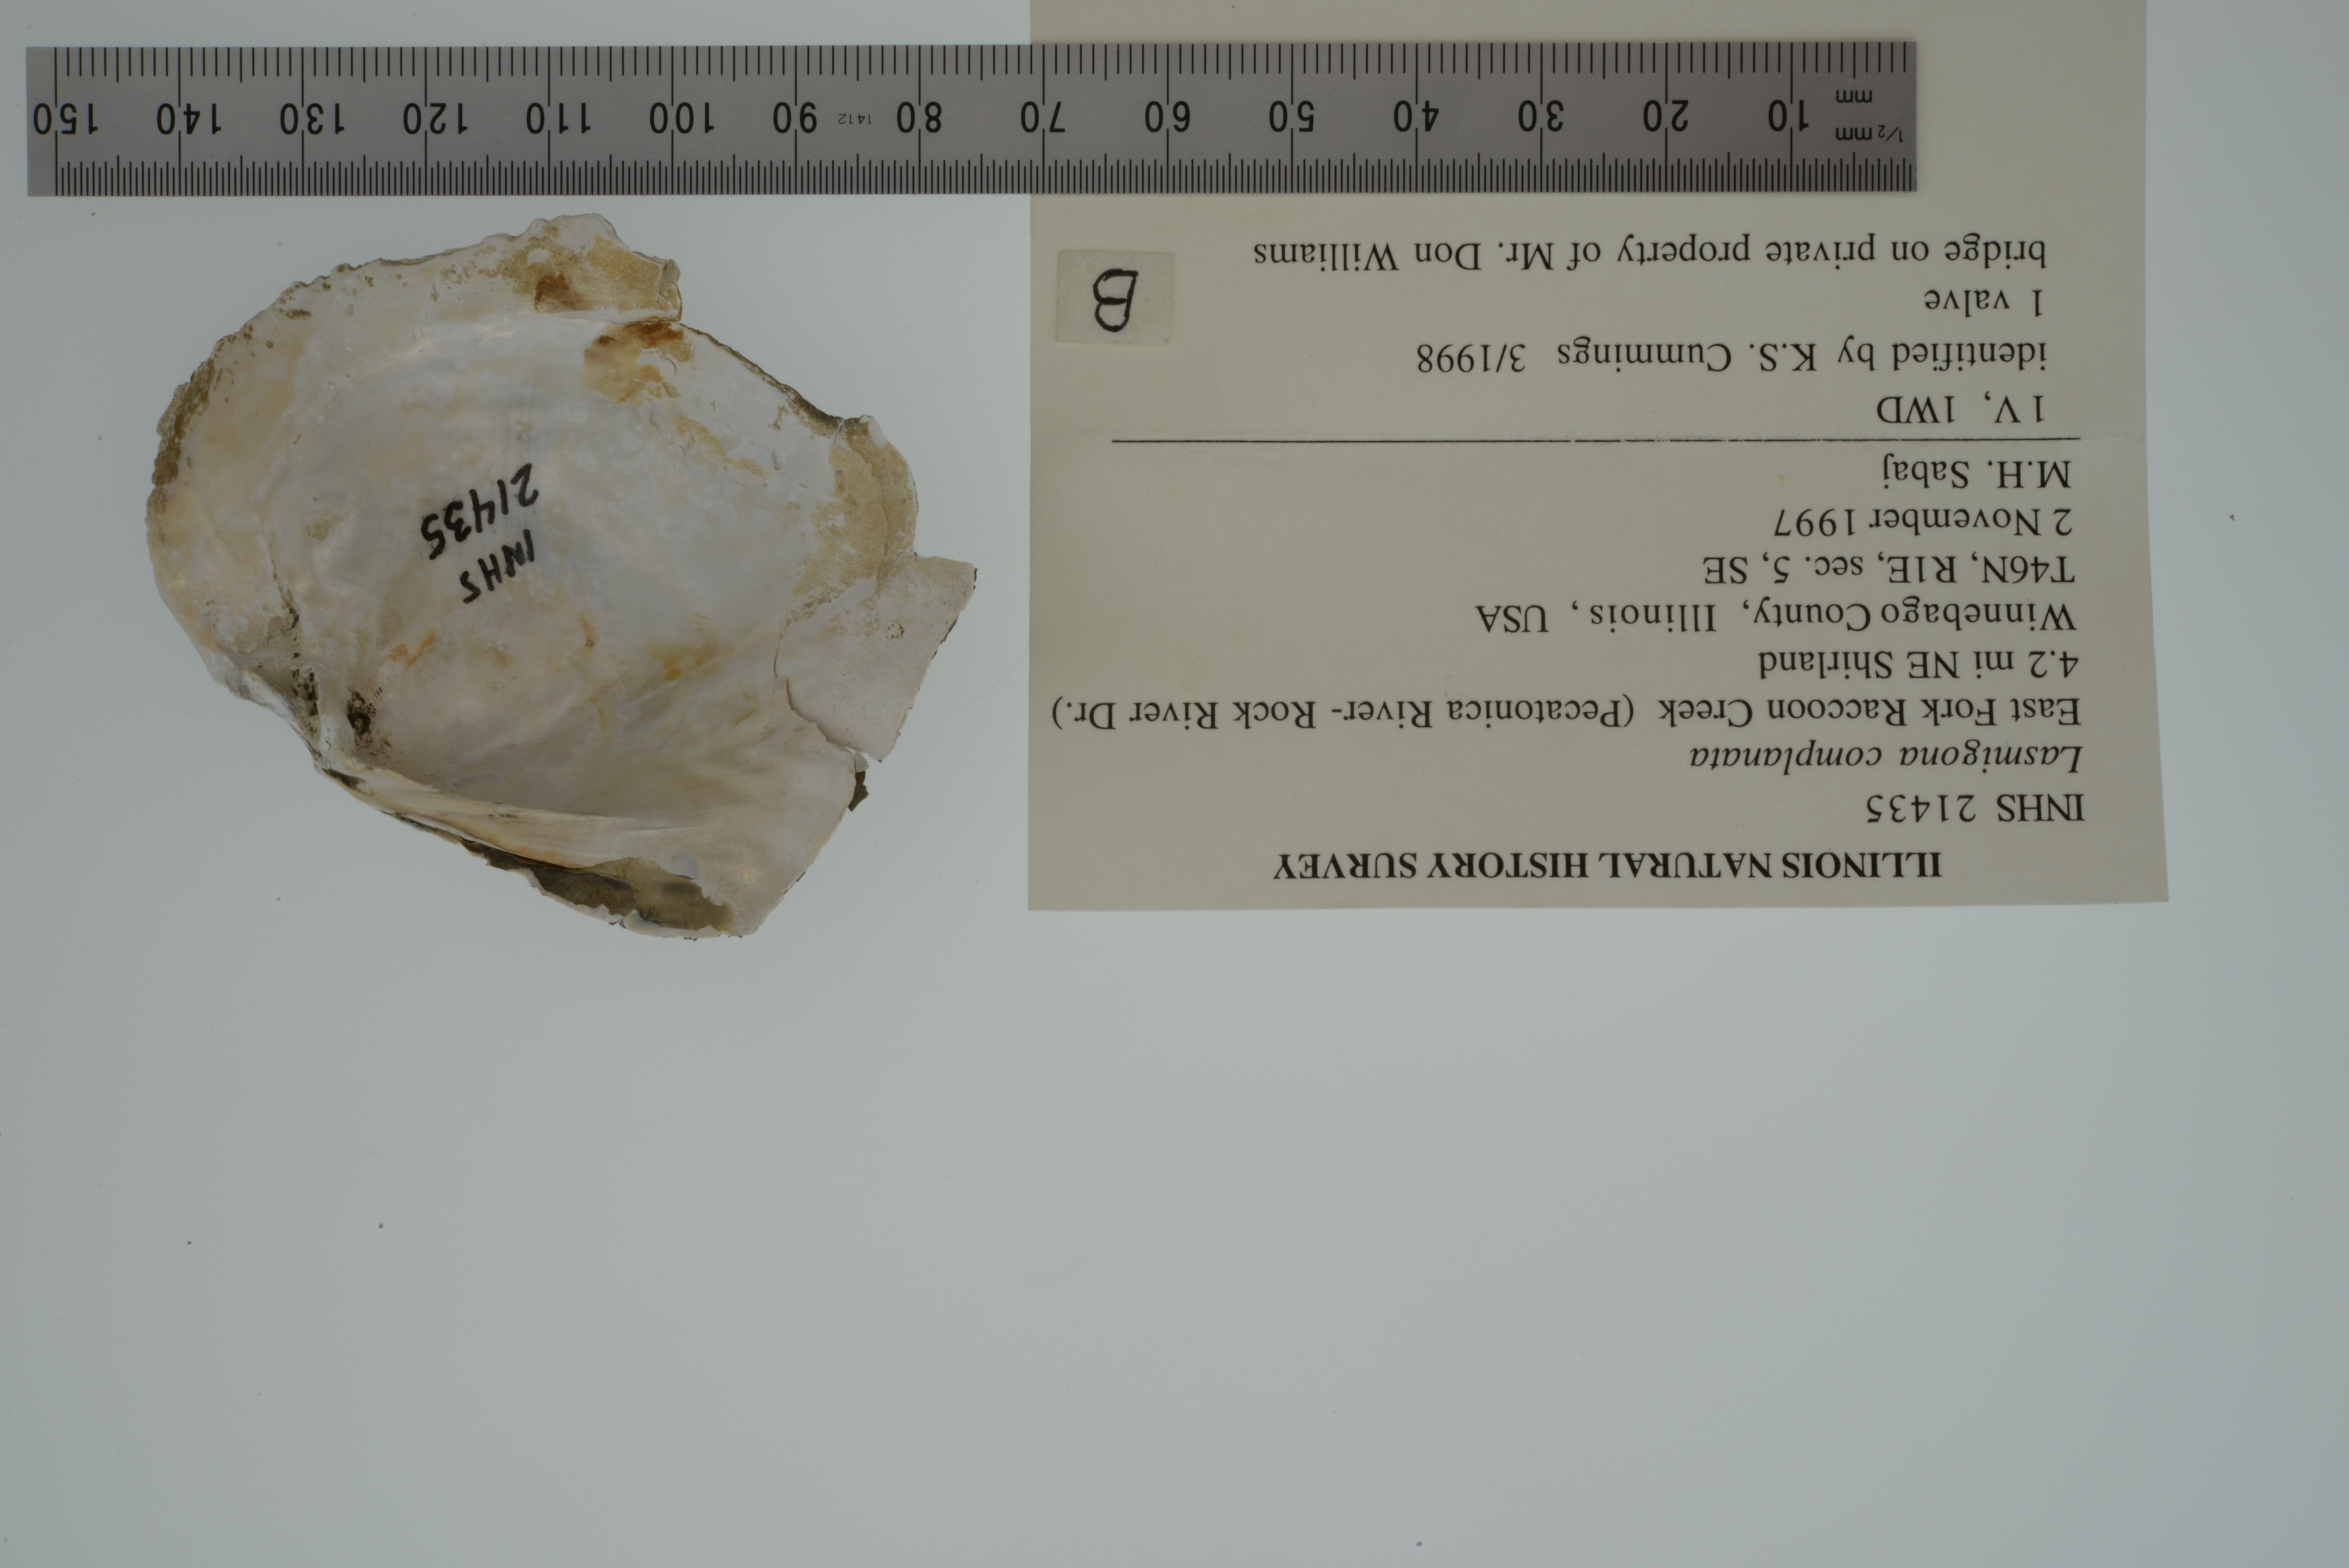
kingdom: Animalia
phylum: Mollusca
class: Bivalvia
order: Unionida
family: Unionidae
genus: Lasmigona
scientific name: Lasmigona complanata
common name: White heelsplitter
